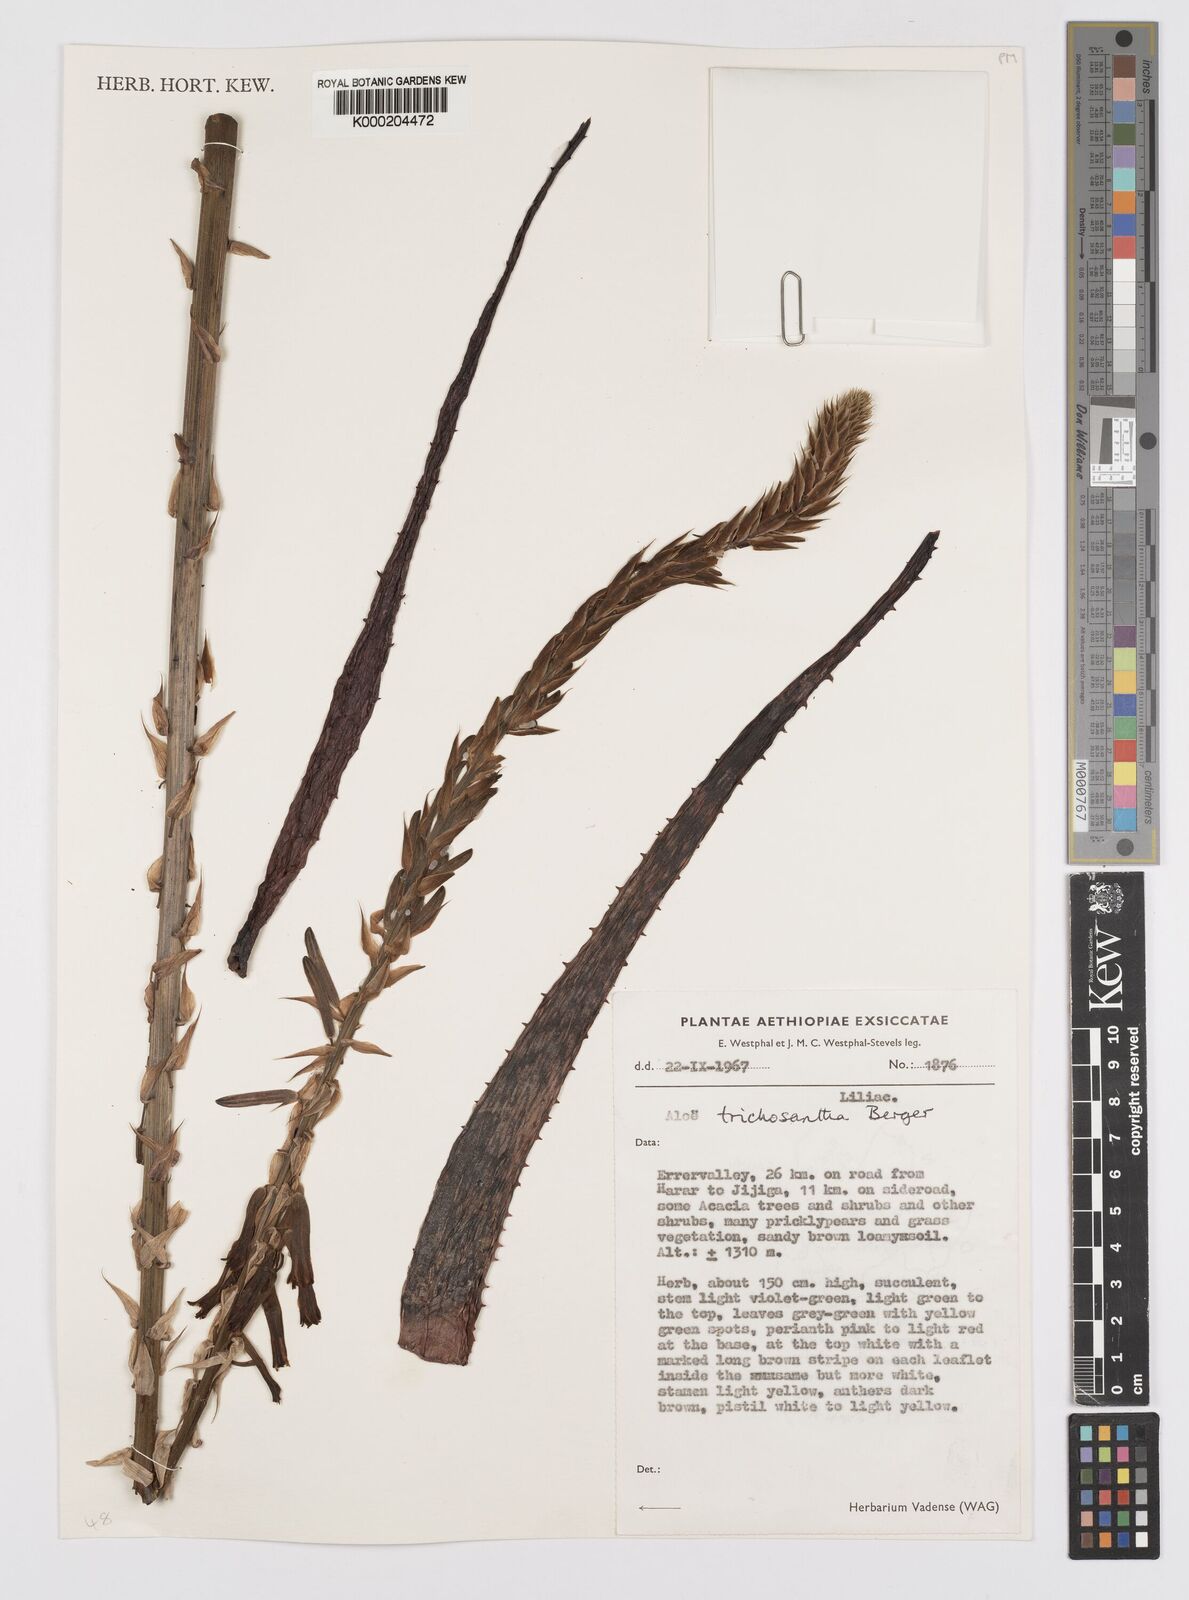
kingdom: Plantae
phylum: Tracheophyta
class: Liliopsida
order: Asparagales
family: Asphodelaceae
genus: Aloe
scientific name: Aloe trichosantha
